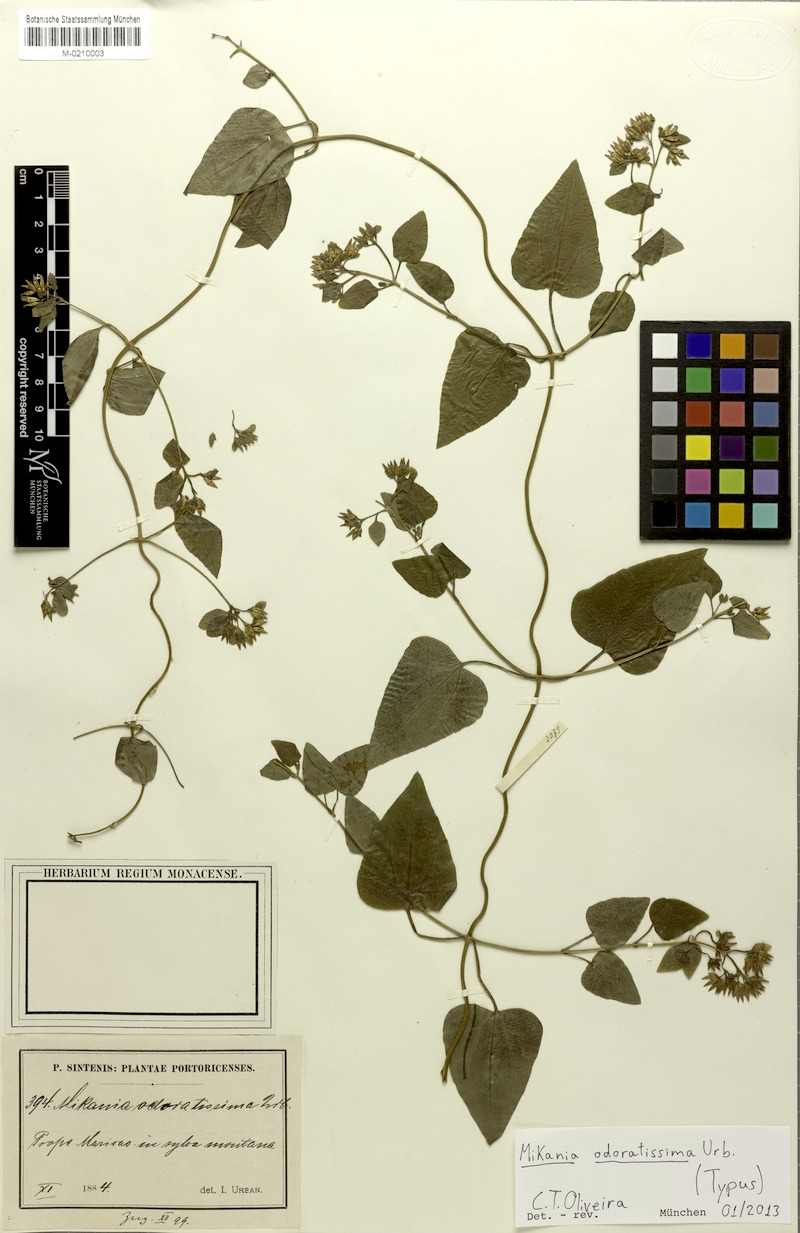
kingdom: Plantae
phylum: Tracheophyta
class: Magnoliopsida
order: Asterales
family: Asteraceae
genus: Mikania
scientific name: Mikania odoratissima
